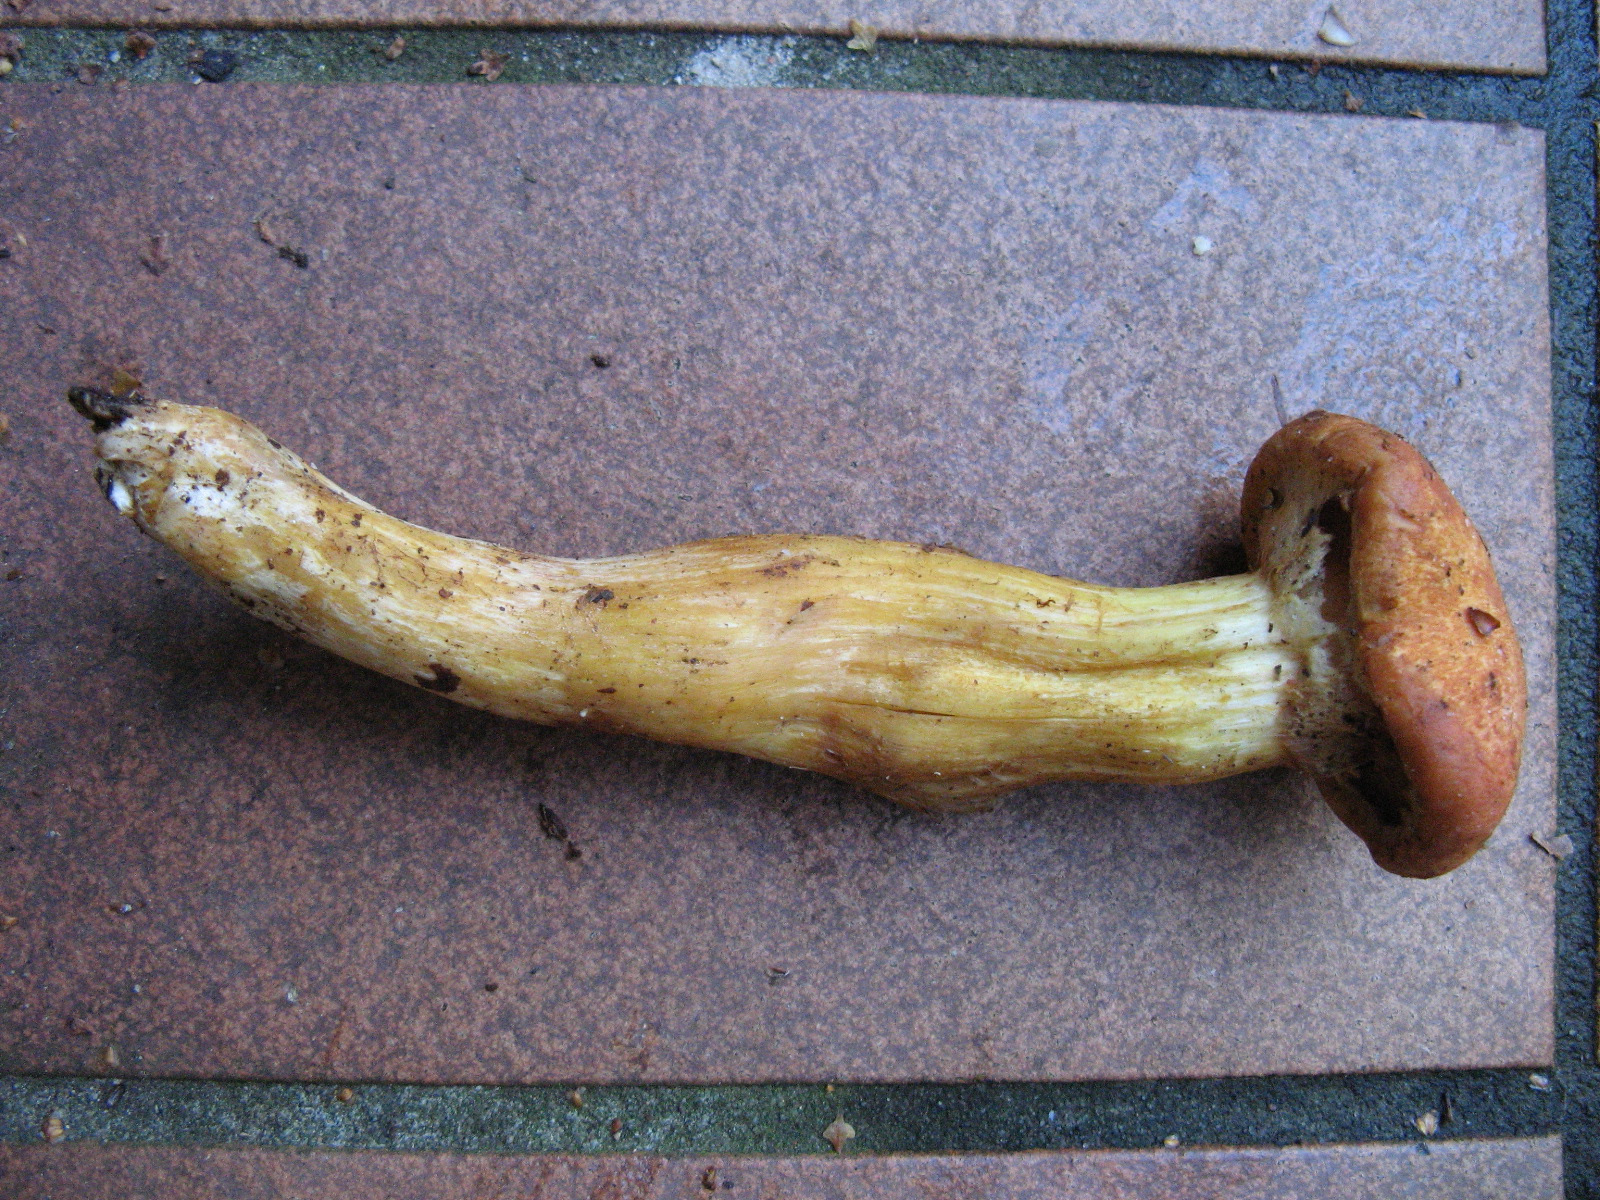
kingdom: Fungi
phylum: Basidiomycota
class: Agaricomycetes
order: Agaricales
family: Hymenogastraceae
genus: Gymnopilus
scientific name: Gymnopilus spectabilis
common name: fibret flammehat
